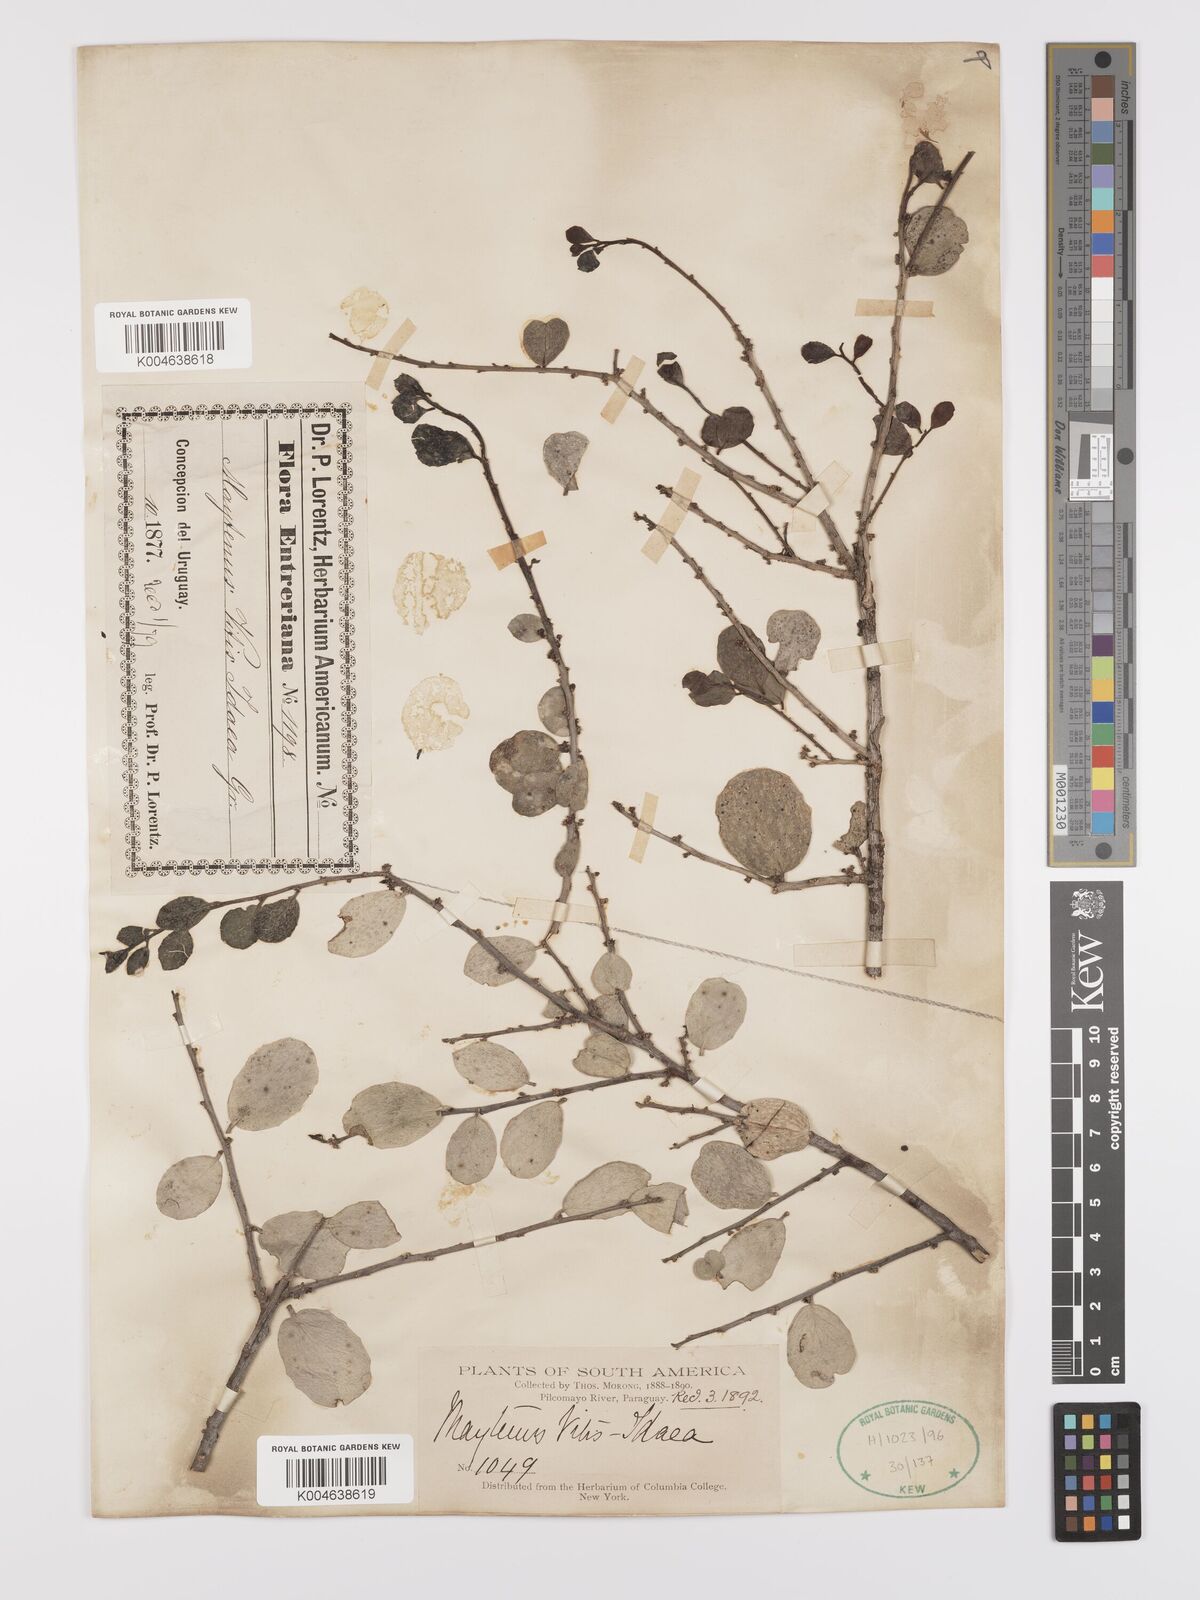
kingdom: Plantae
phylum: Tracheophyta
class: Magnoliopsida
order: Celastrales
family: Celastraceae
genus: Tricerma
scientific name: Tricerma vitis-idaeum
